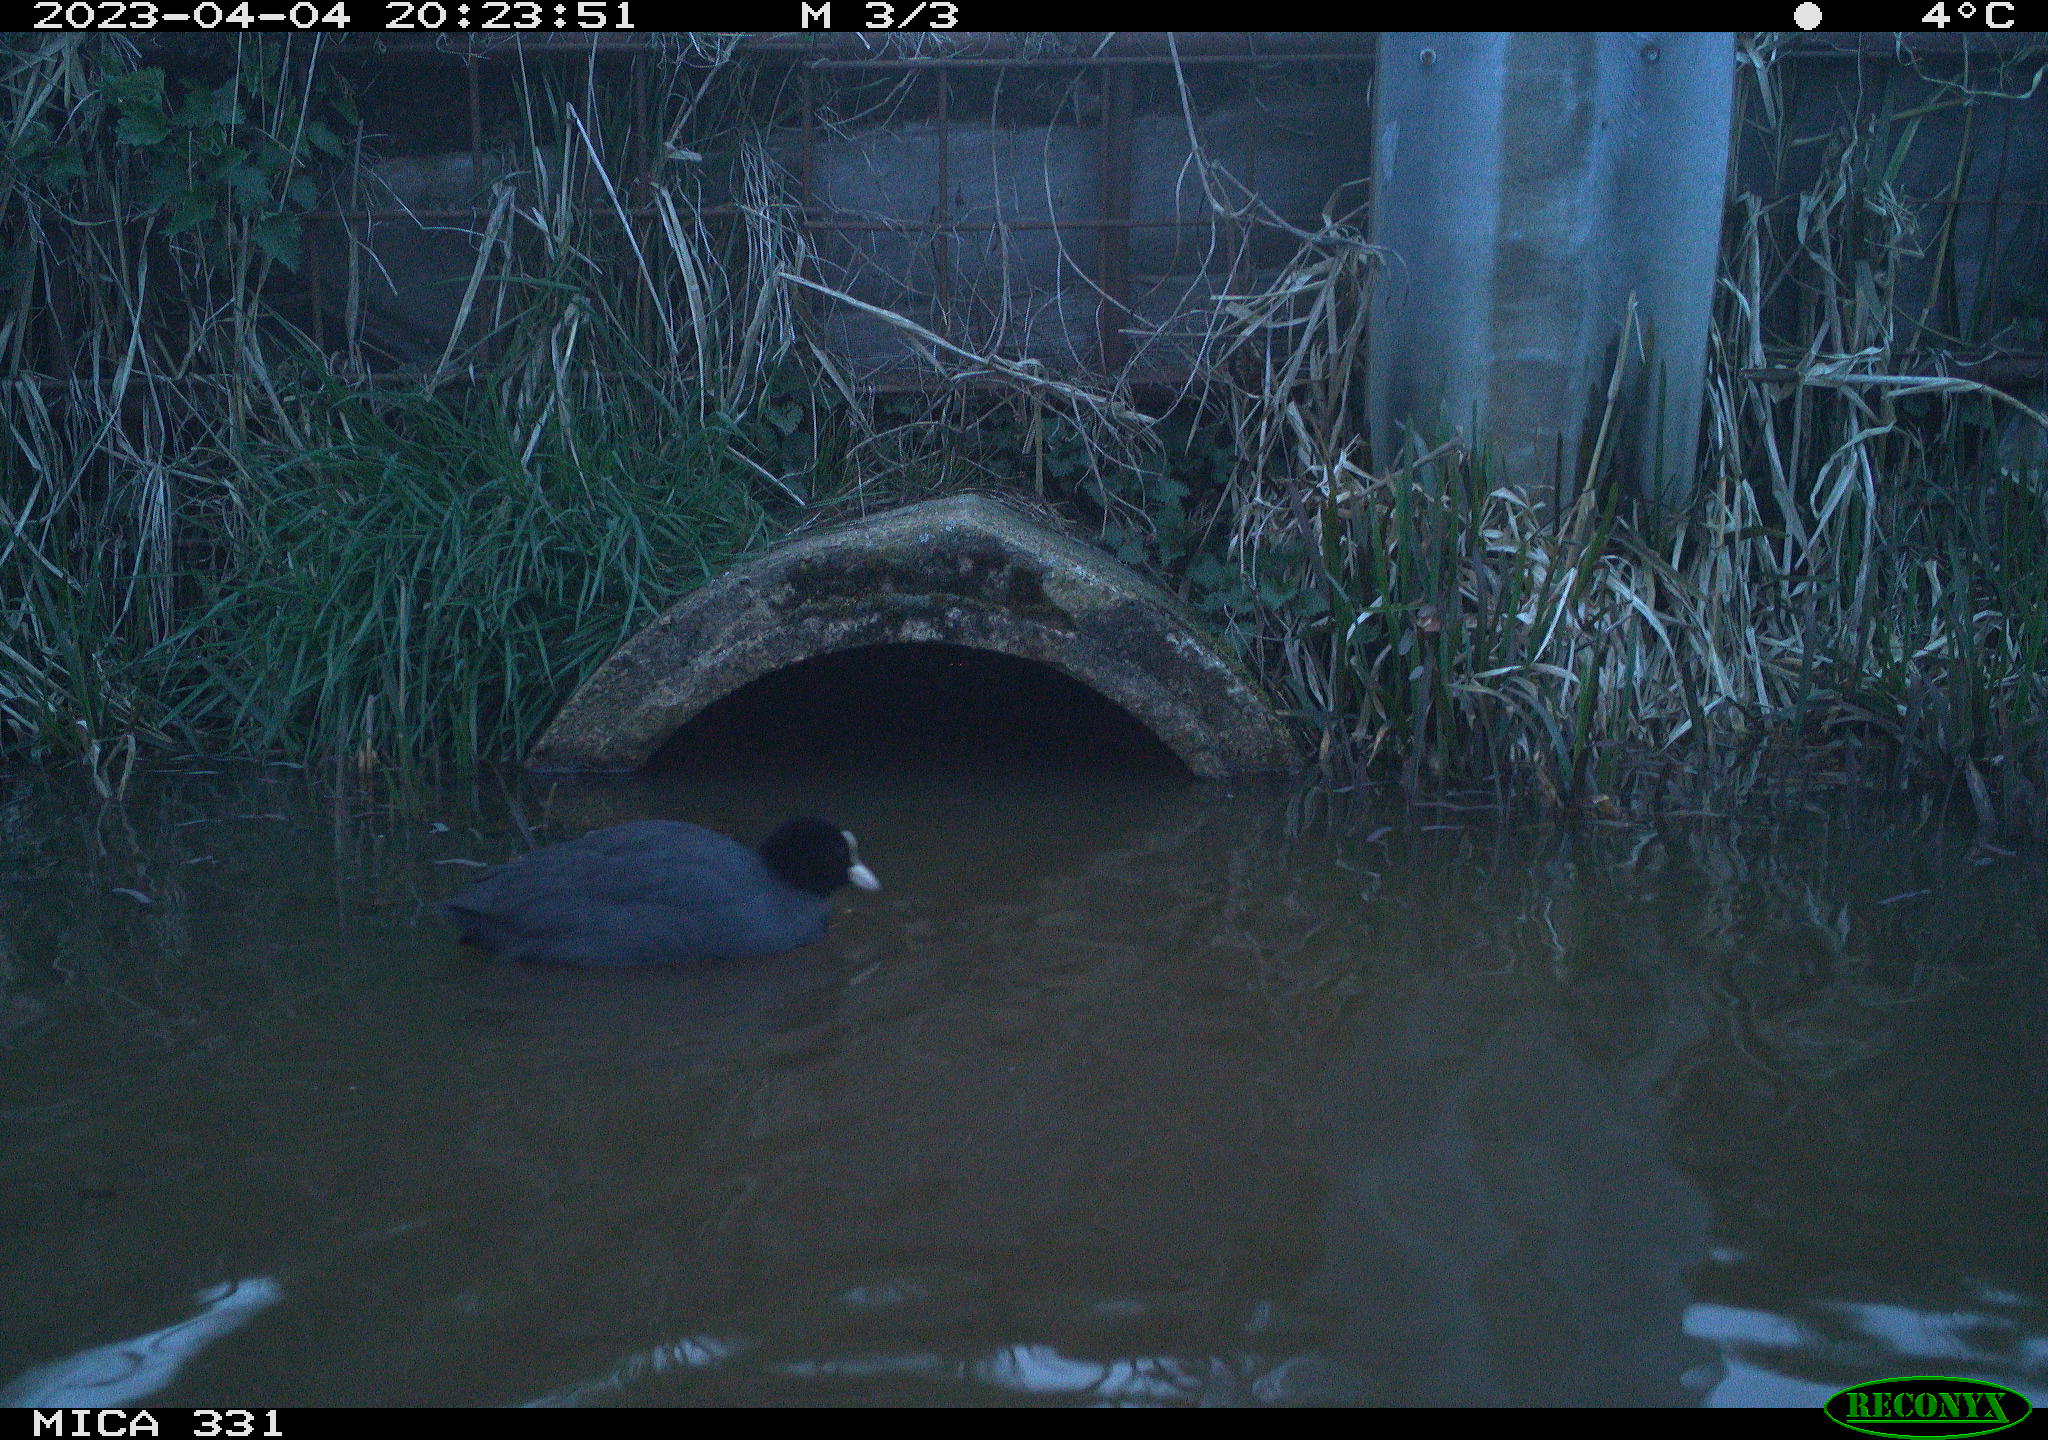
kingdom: Animalia
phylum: Chordata
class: Aves
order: Gruiformes
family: Rallidae
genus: Fulica
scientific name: Fulica atra
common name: Eurasian coot
